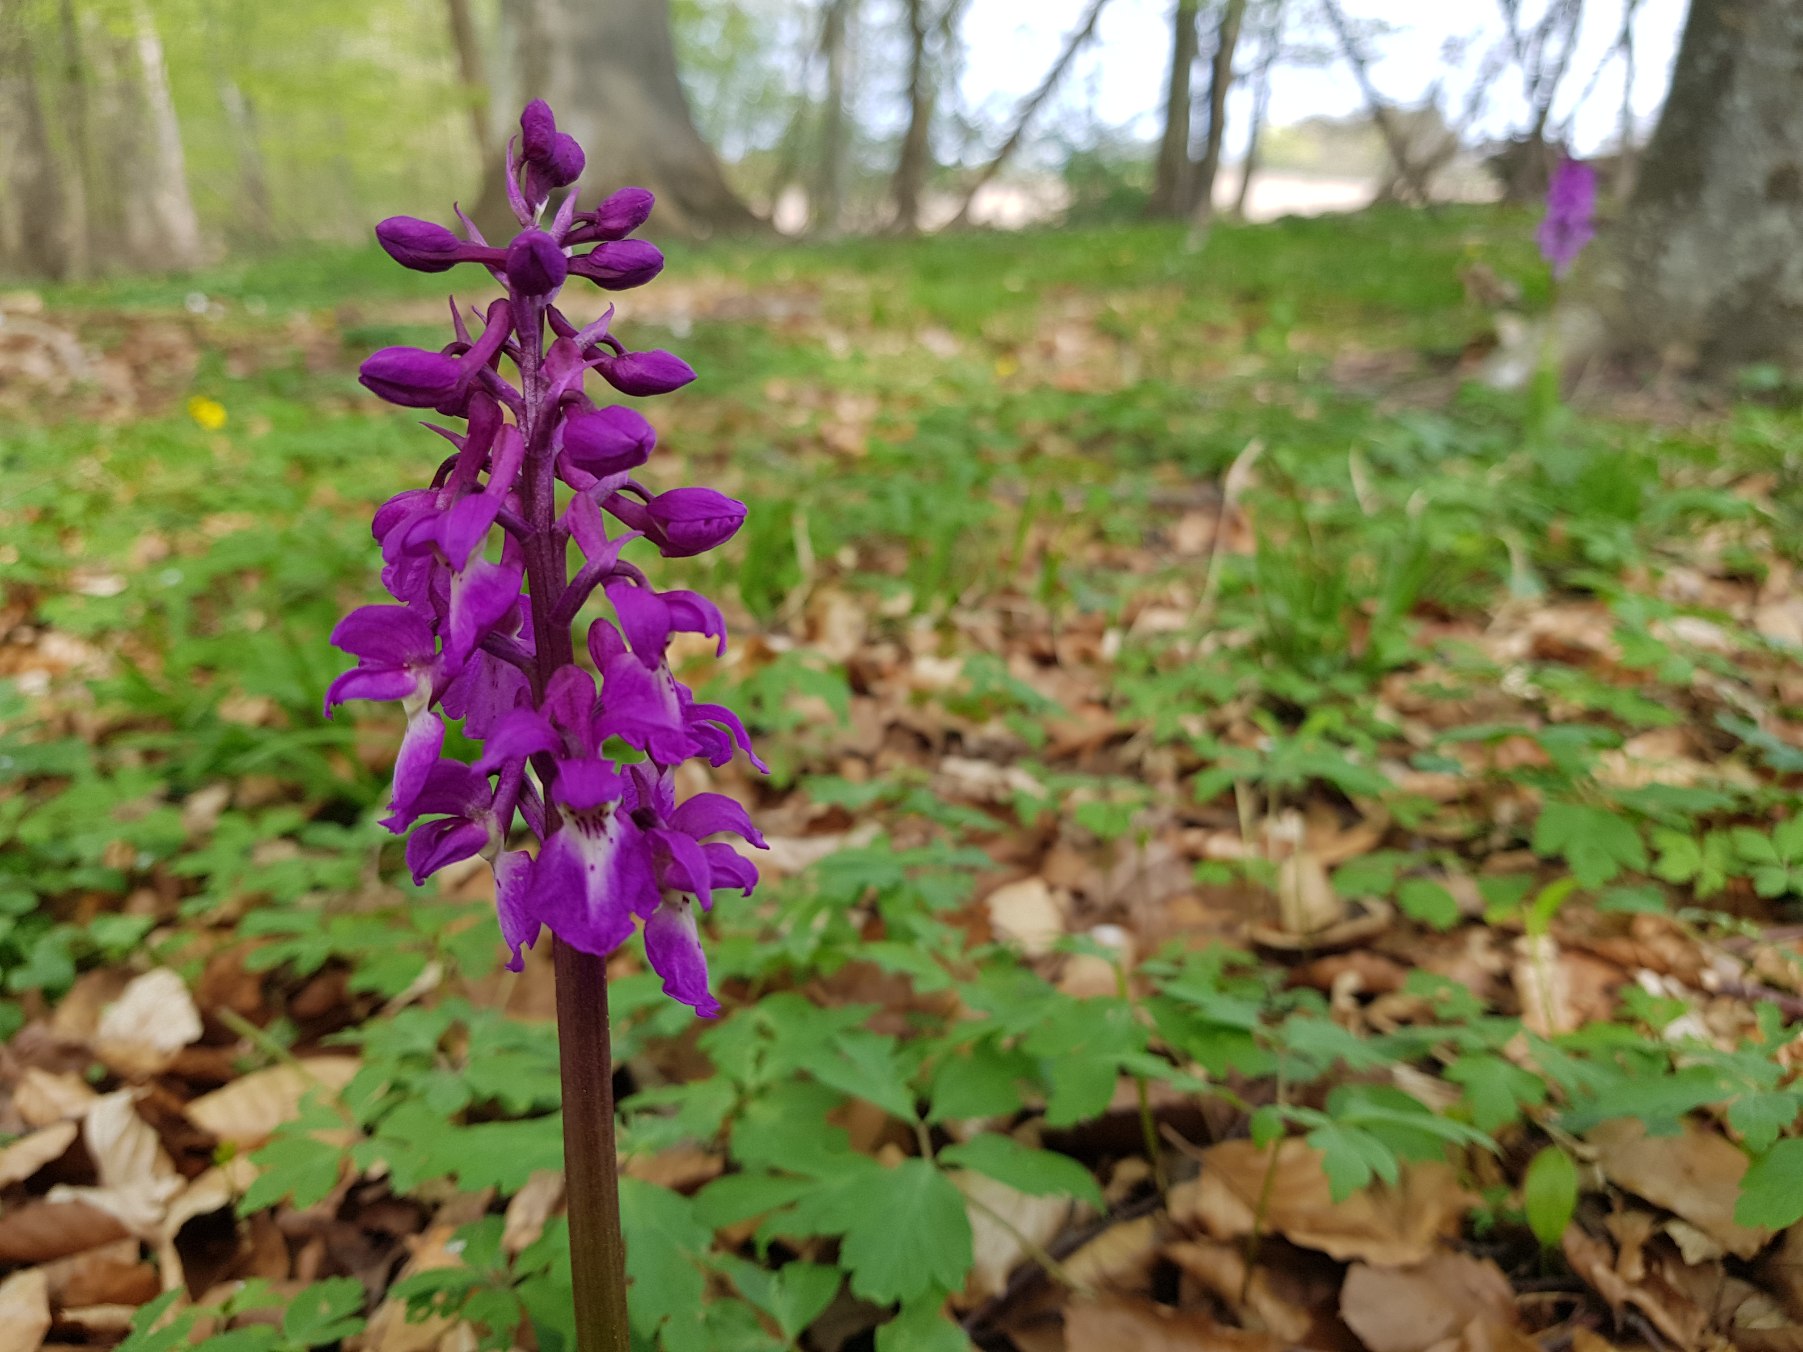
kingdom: Plantae
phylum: Tracheophyta
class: Liliopsida
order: Asparagales
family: Orchidaceae
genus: Orchis
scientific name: Orchis mascula
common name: Tyndakset gøgeurt
